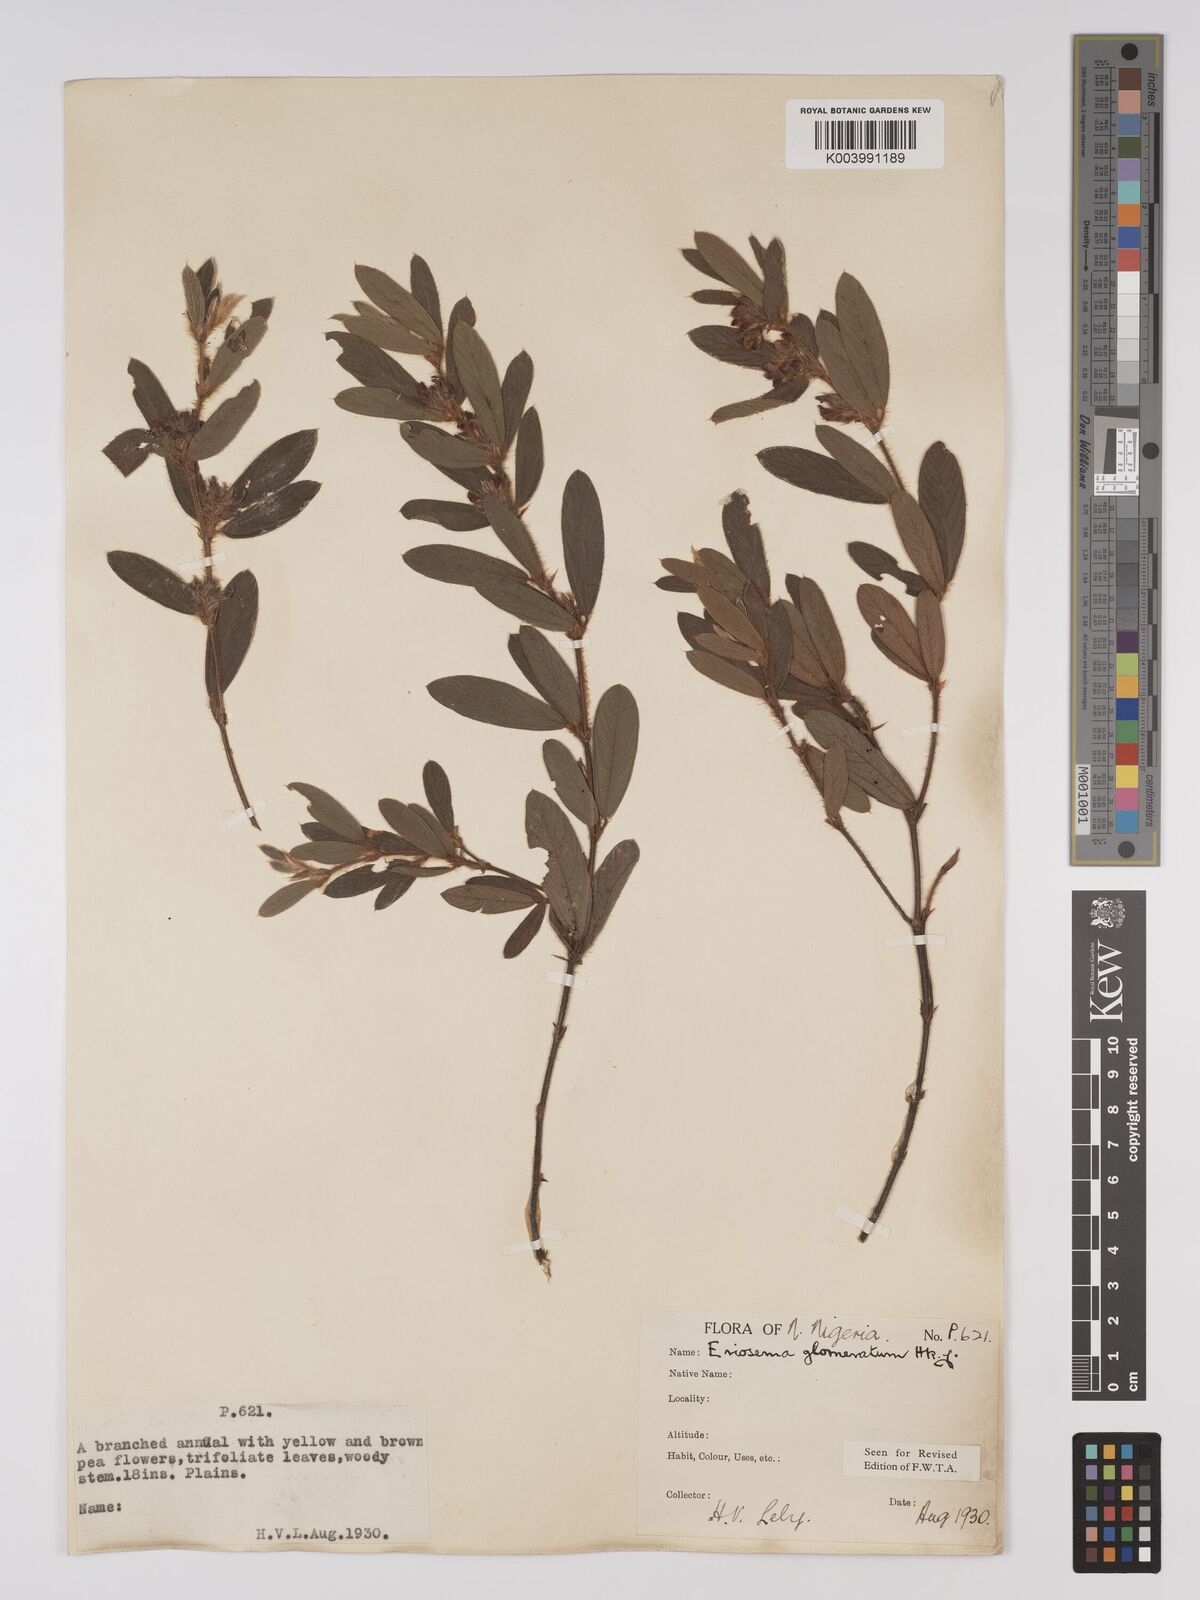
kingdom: Plantae
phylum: Tracheophyta
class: Magnoliopsida
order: Fabales
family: Fabaceae
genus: Eriosema
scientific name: Eriosema glomeratum
